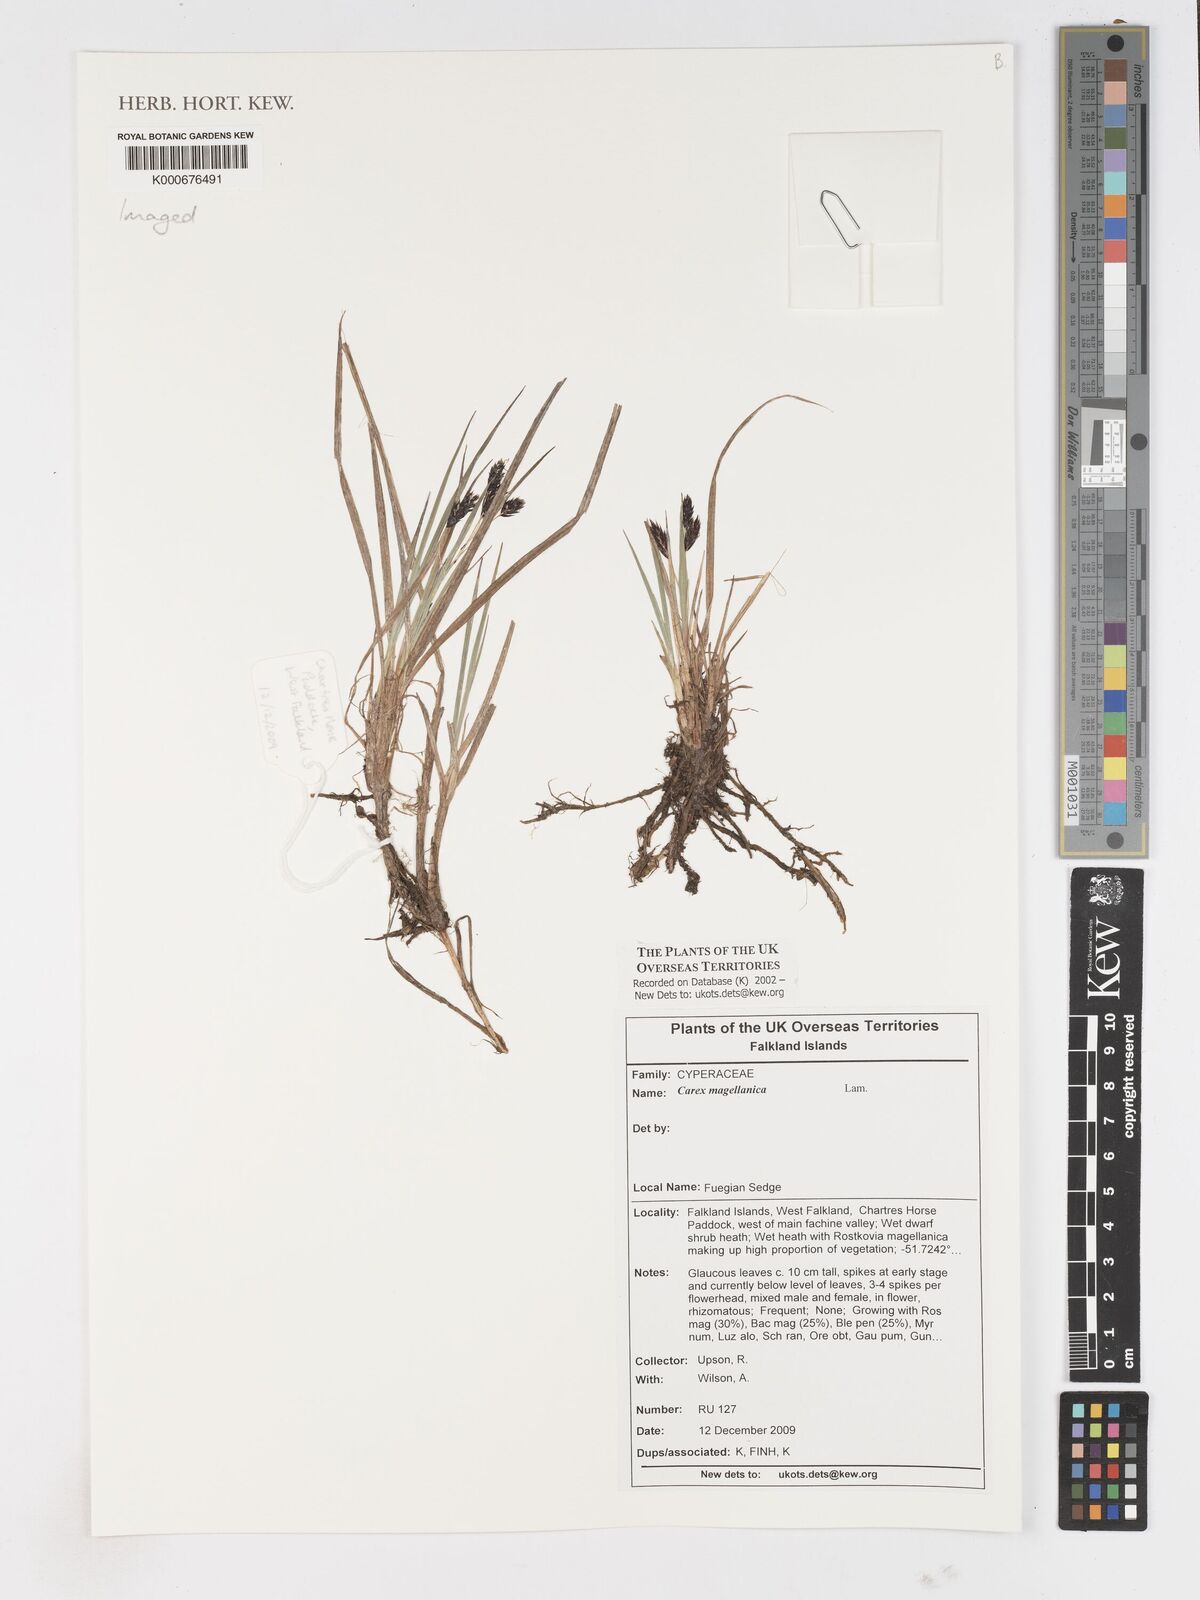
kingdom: Plantae
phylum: Tracheophyta
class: Liliopsida
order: Poales
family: Cyperaceae
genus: Carex
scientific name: Carex magellanica
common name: Bog sedge
